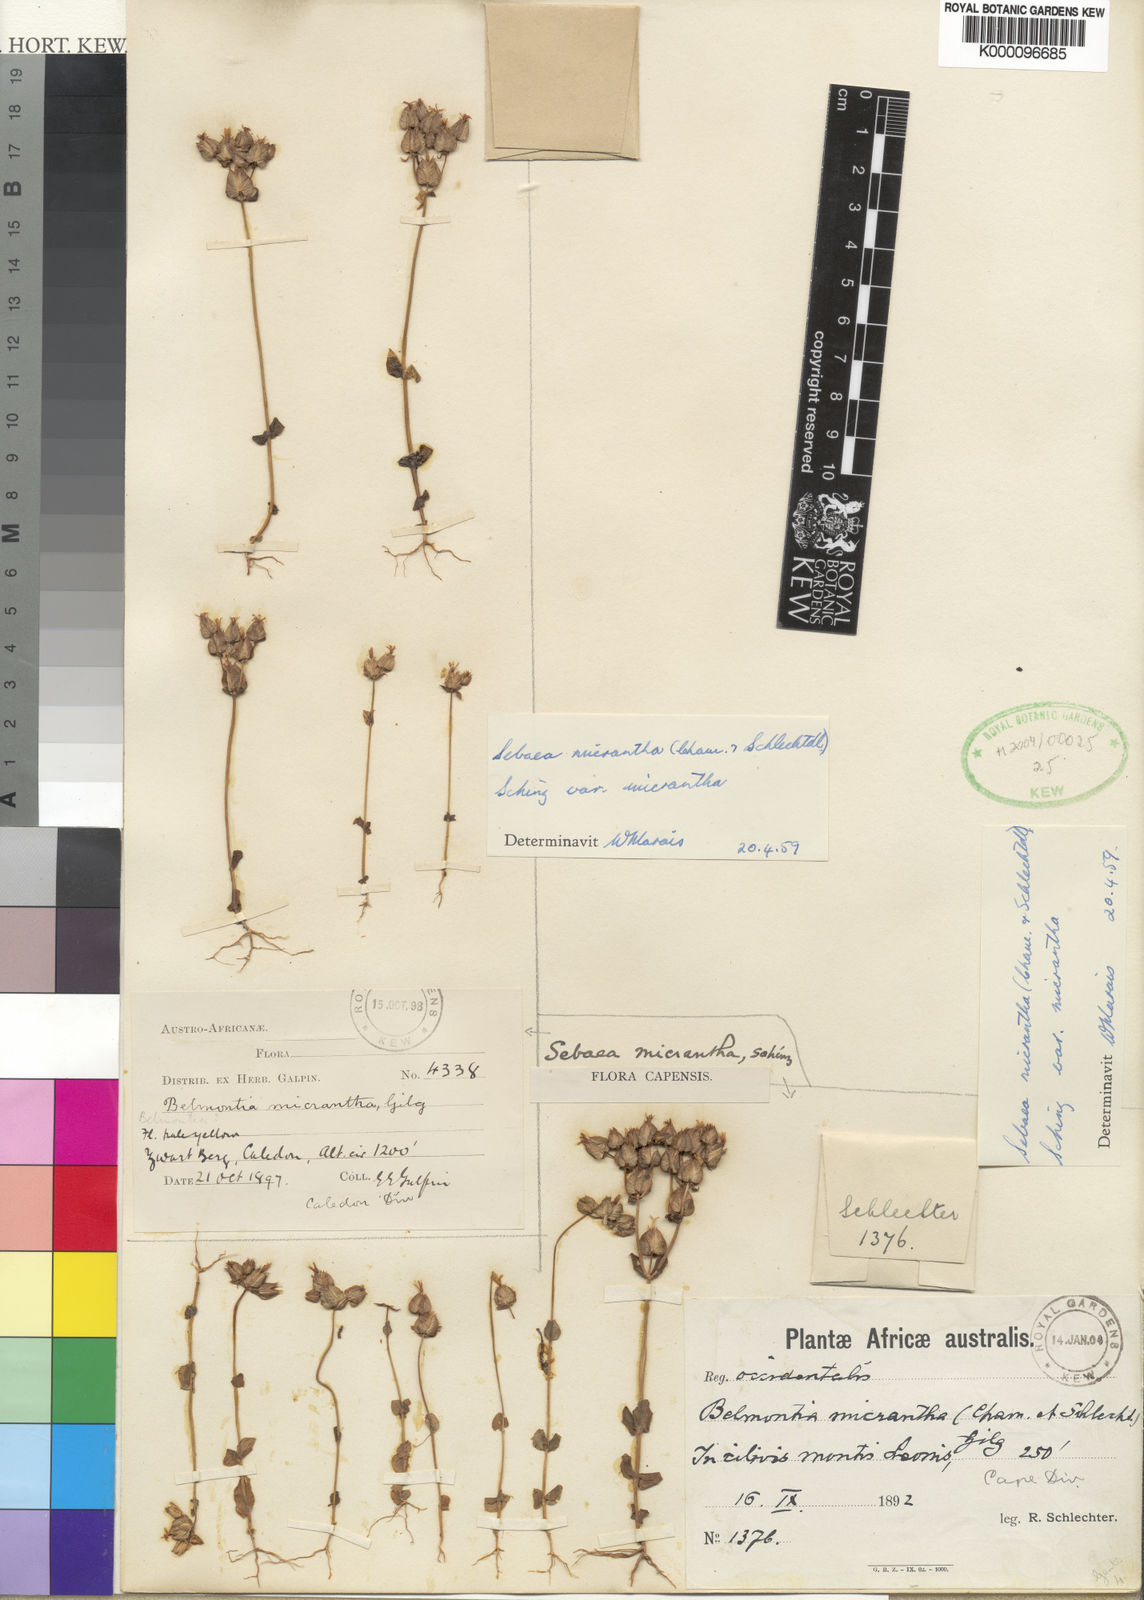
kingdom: Plantae
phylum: Tracheophyta
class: Magnoliopsida
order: Gentianales
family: Gentianaceae
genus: Sebaea
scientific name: Sebaea micrantha
